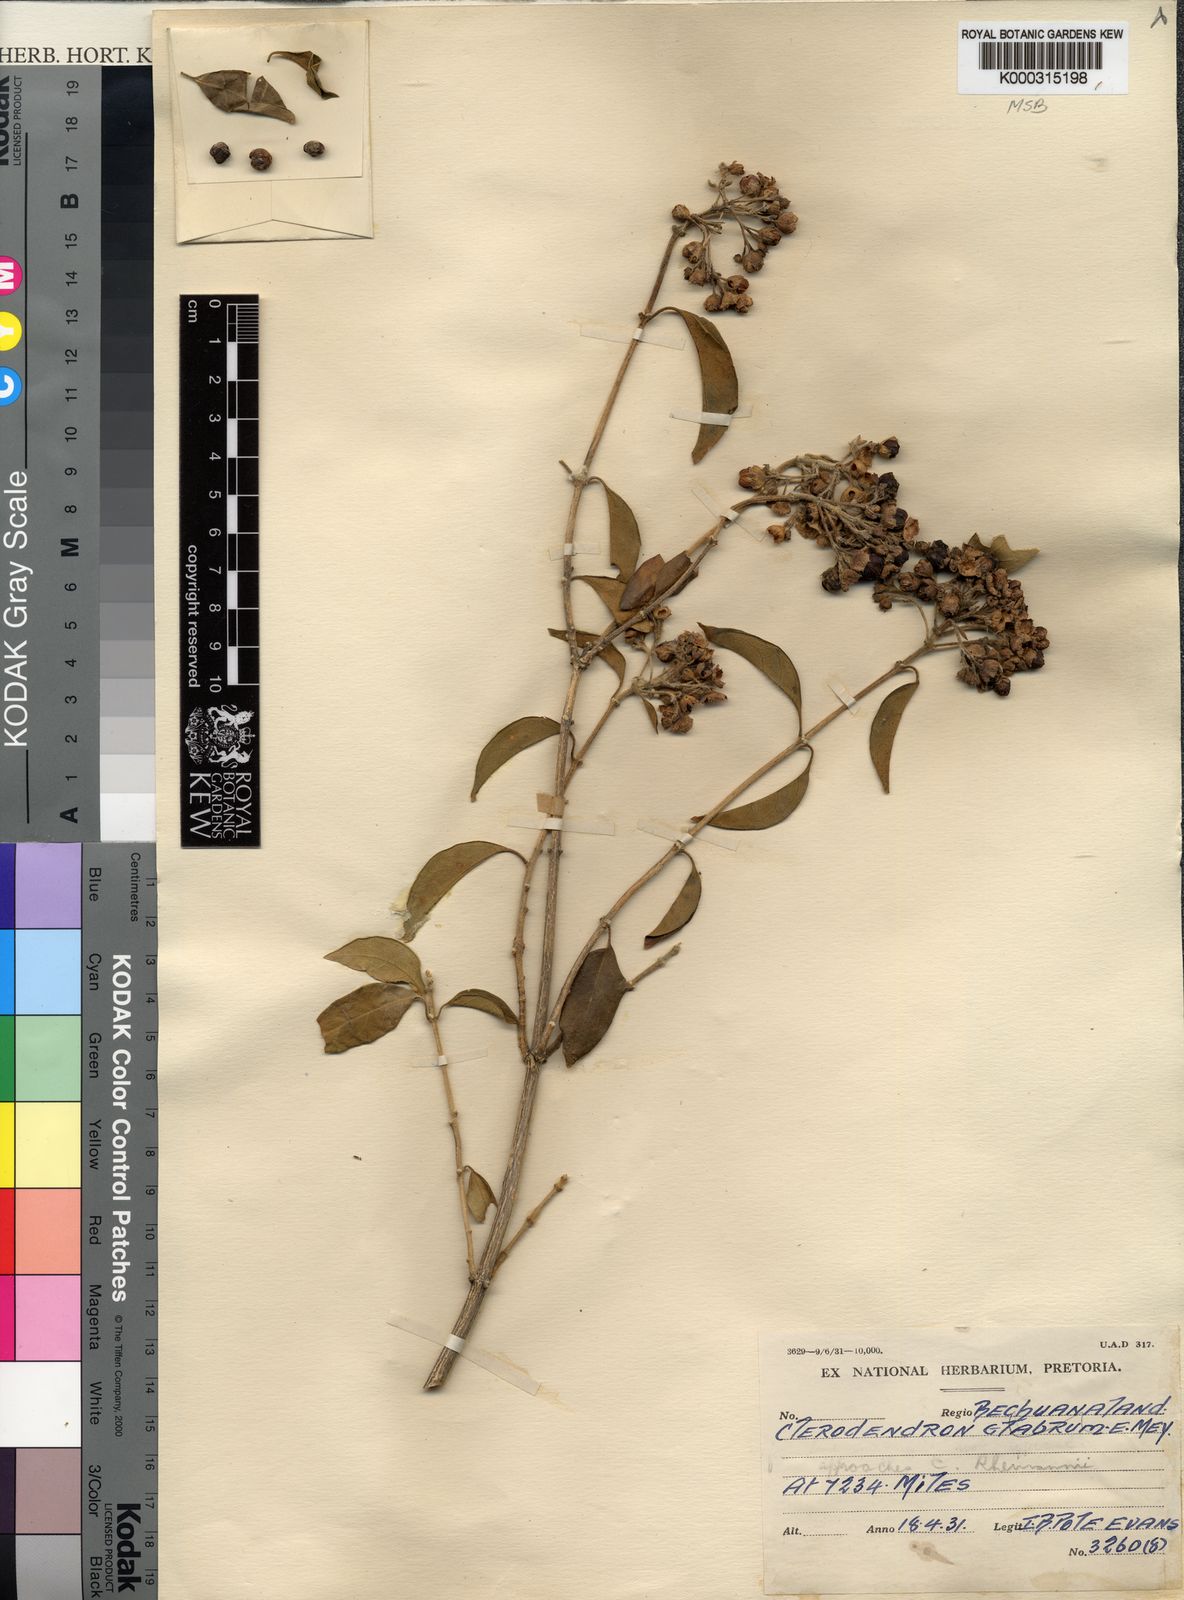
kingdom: Plantae
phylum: Tracheophyta
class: Magnoliopsida
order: Lamiales
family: Lamiaceae
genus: Volkameria
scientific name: Volkameria glabra
